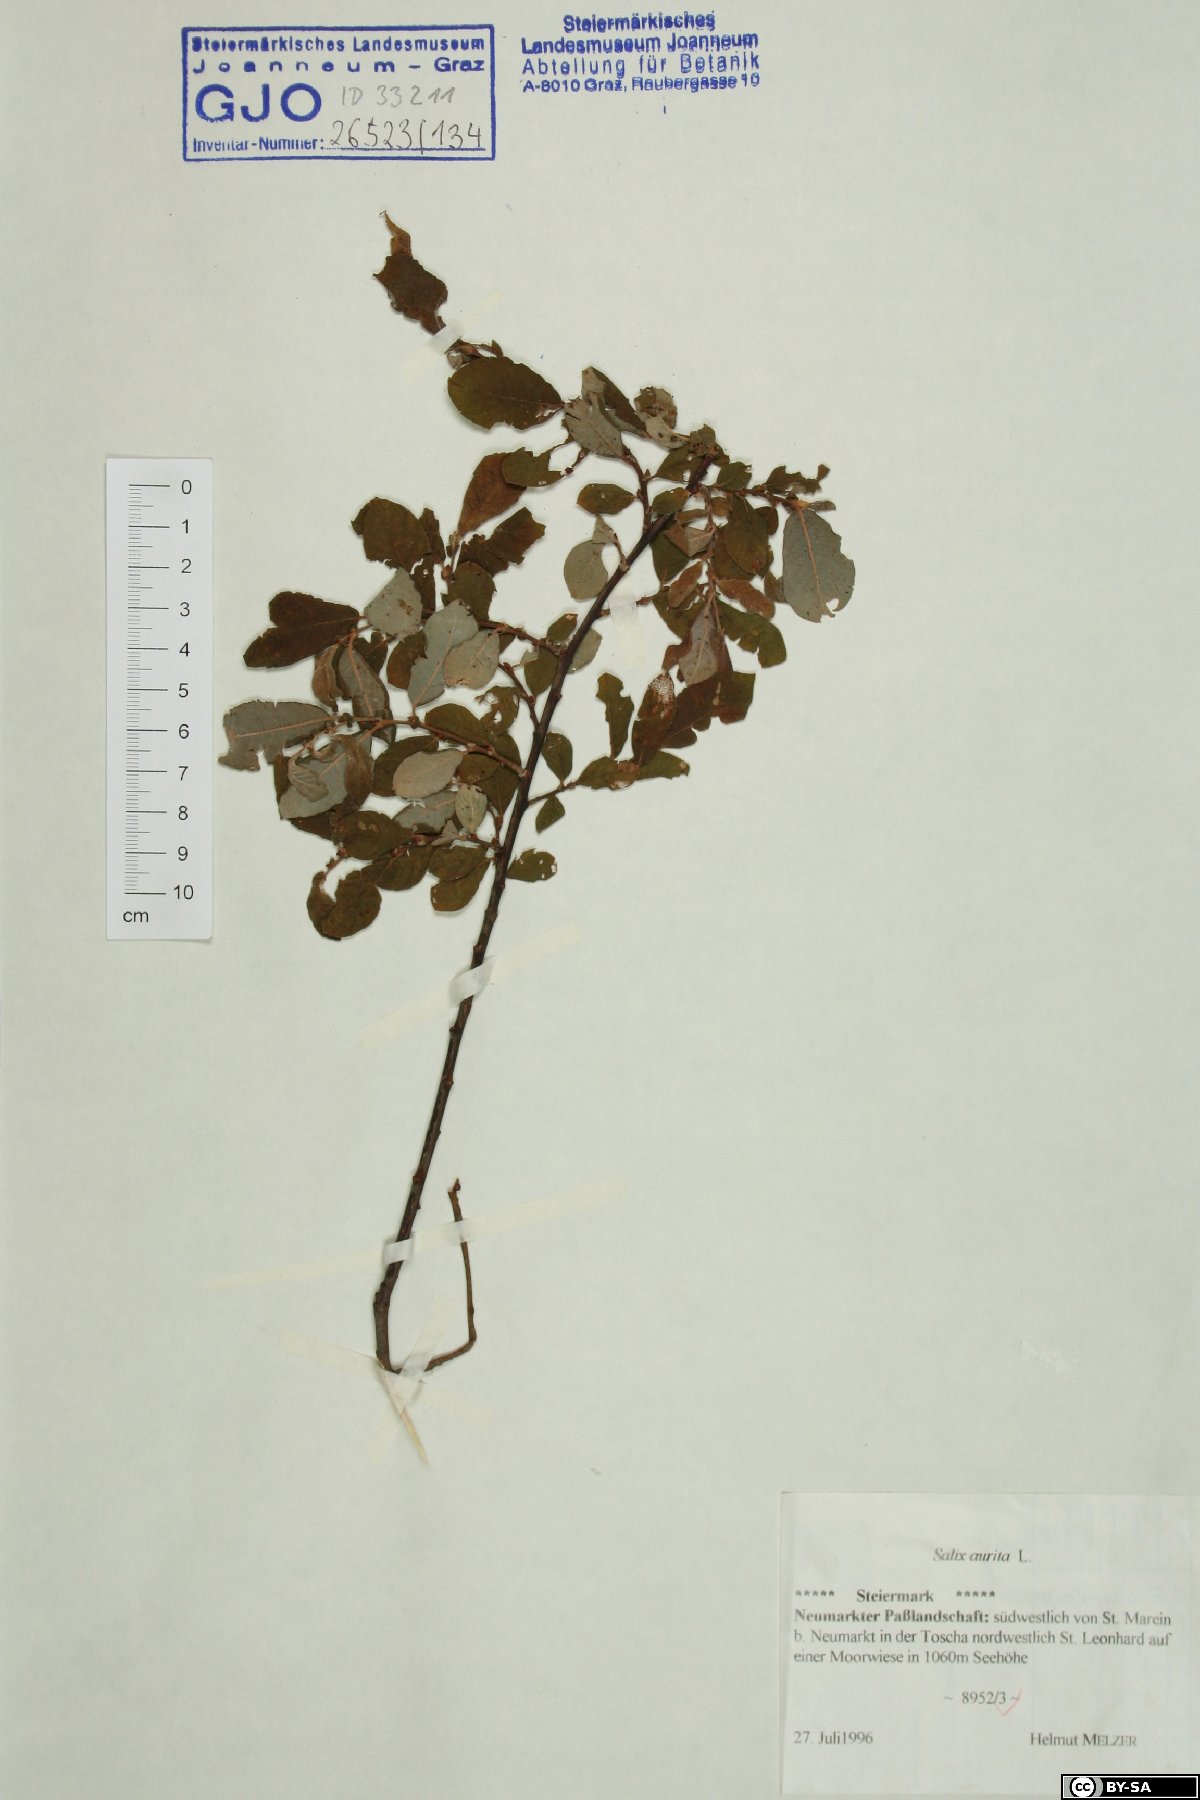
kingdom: Plantae
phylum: Tracheophyta
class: Magnoliopsida
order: Malpighiales
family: Salicaceae
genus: Salix
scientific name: Salix aurita
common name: Eared willow
